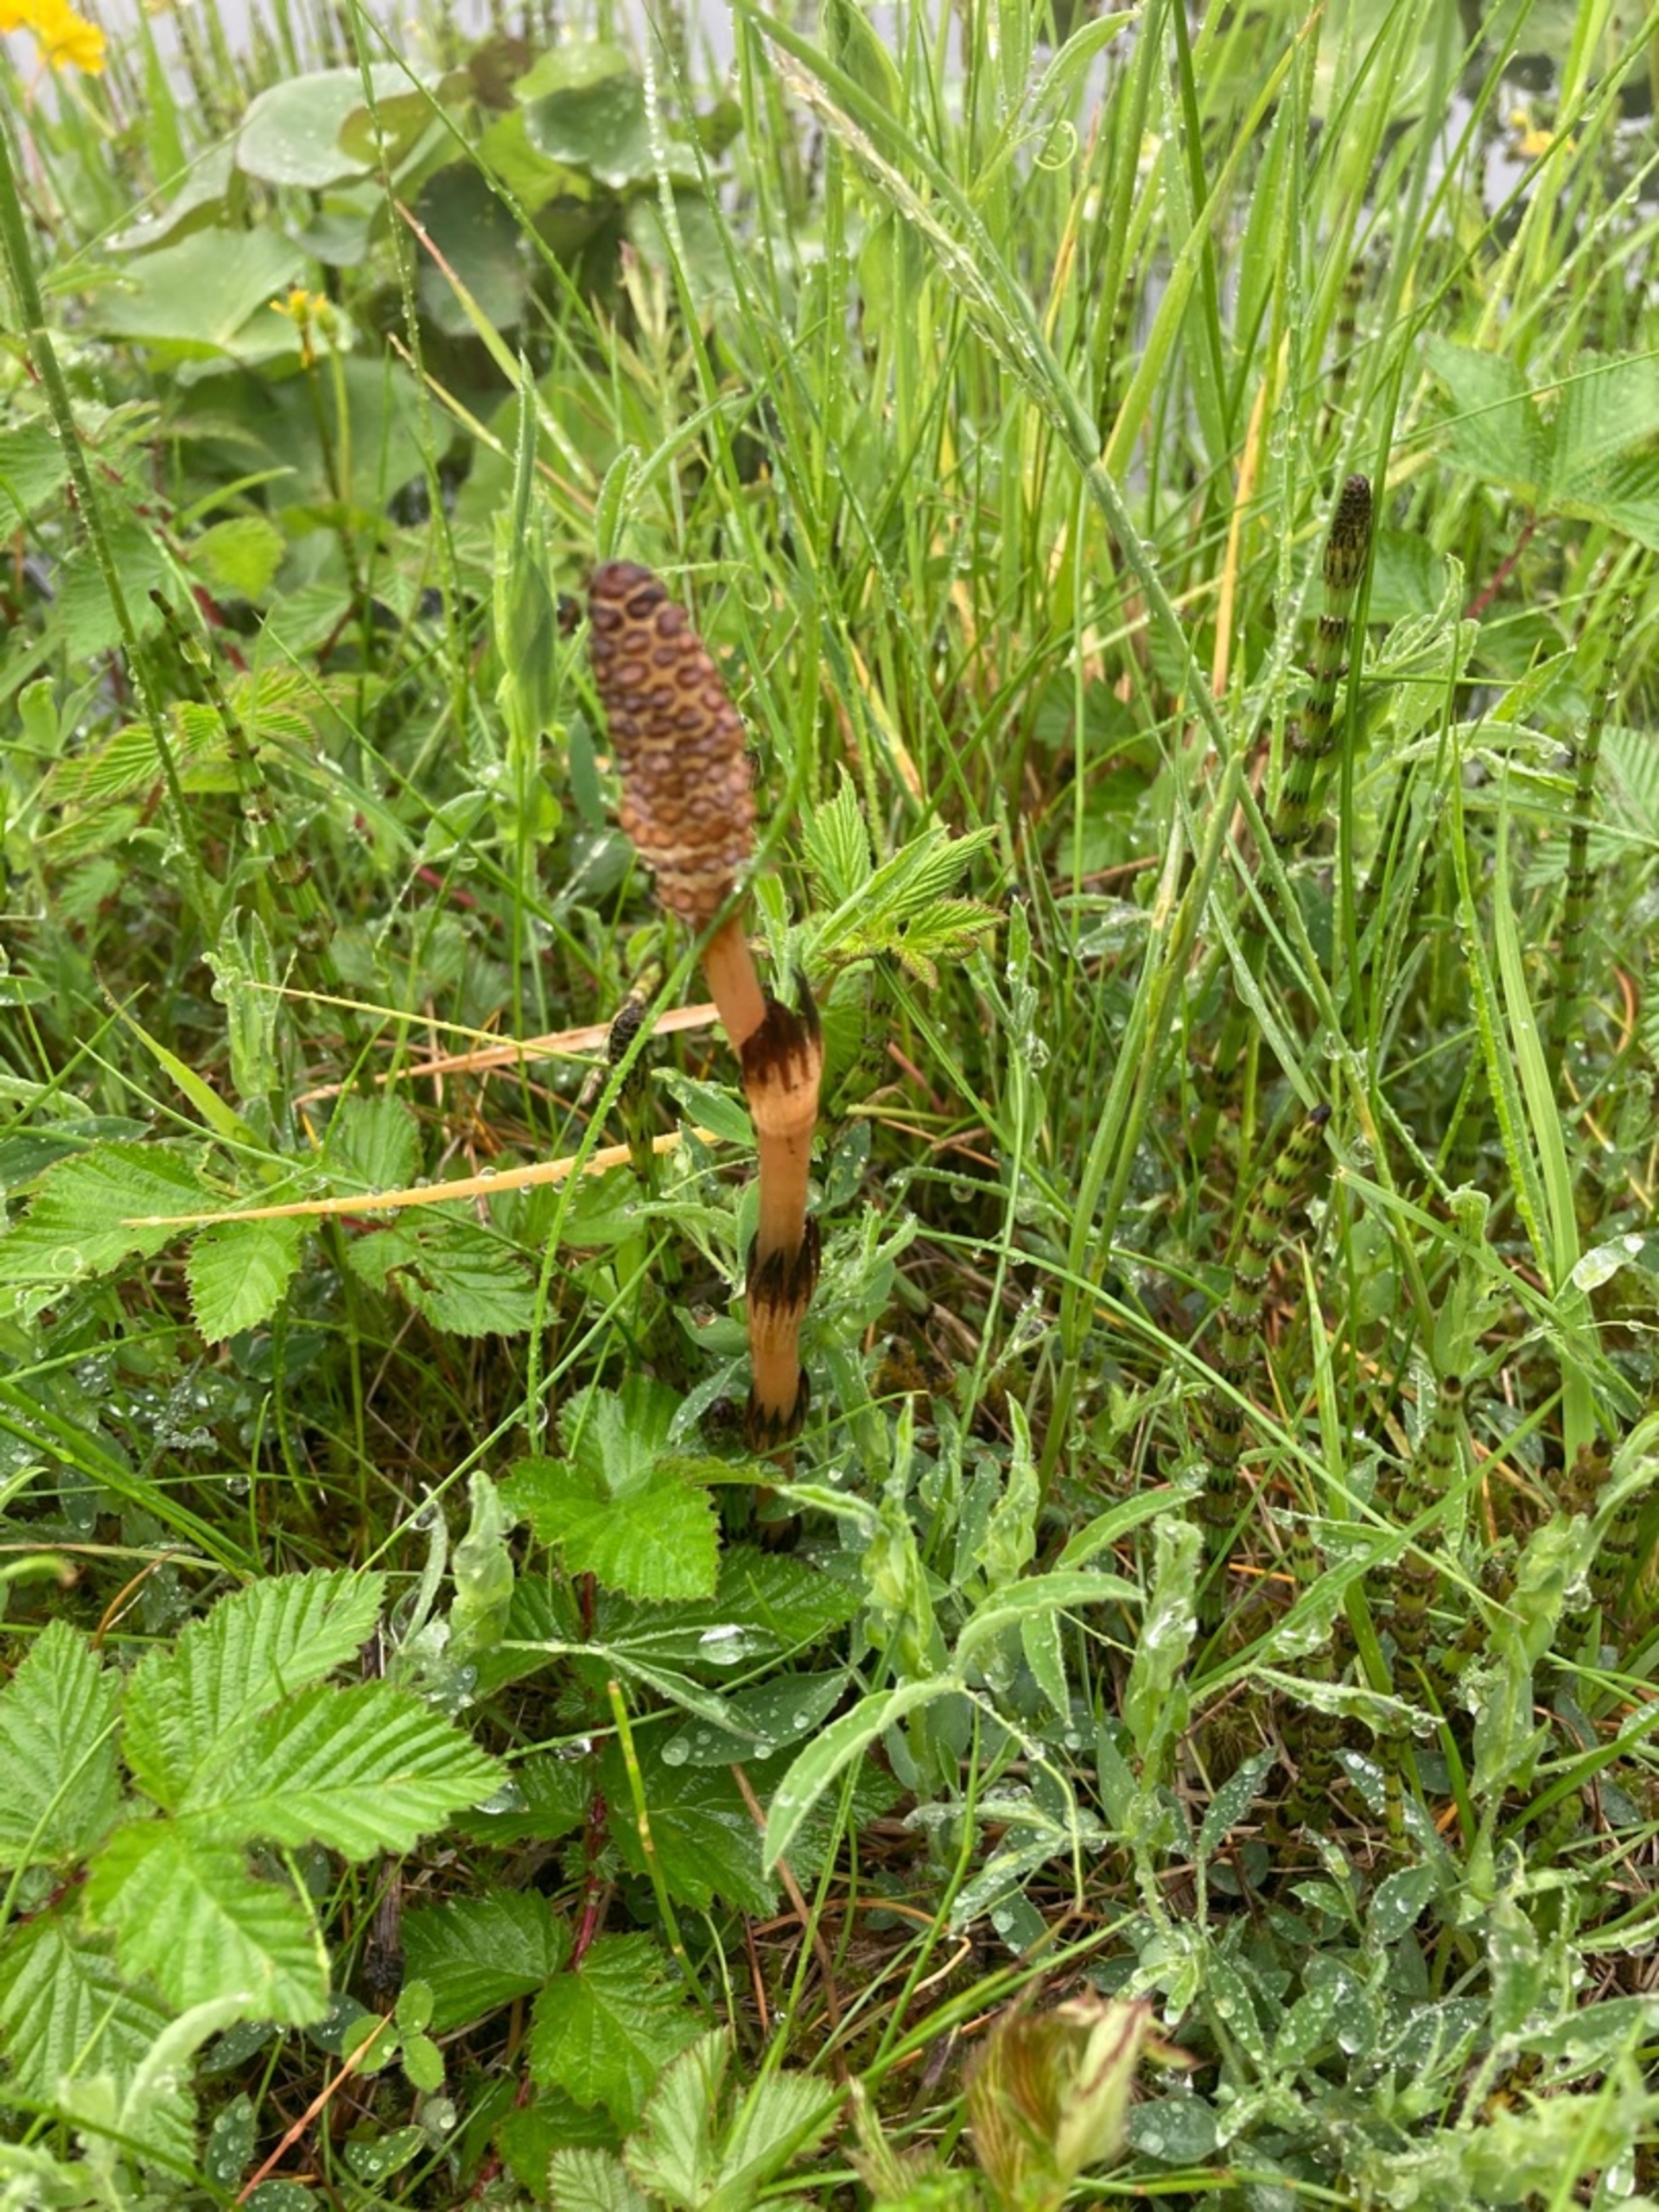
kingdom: Plantae
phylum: Tracheophyta
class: Polypodiopsida
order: Equisetales
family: Equisetaceae
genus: Equisetum
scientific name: Equisetum arvense
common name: Ager-padderok
